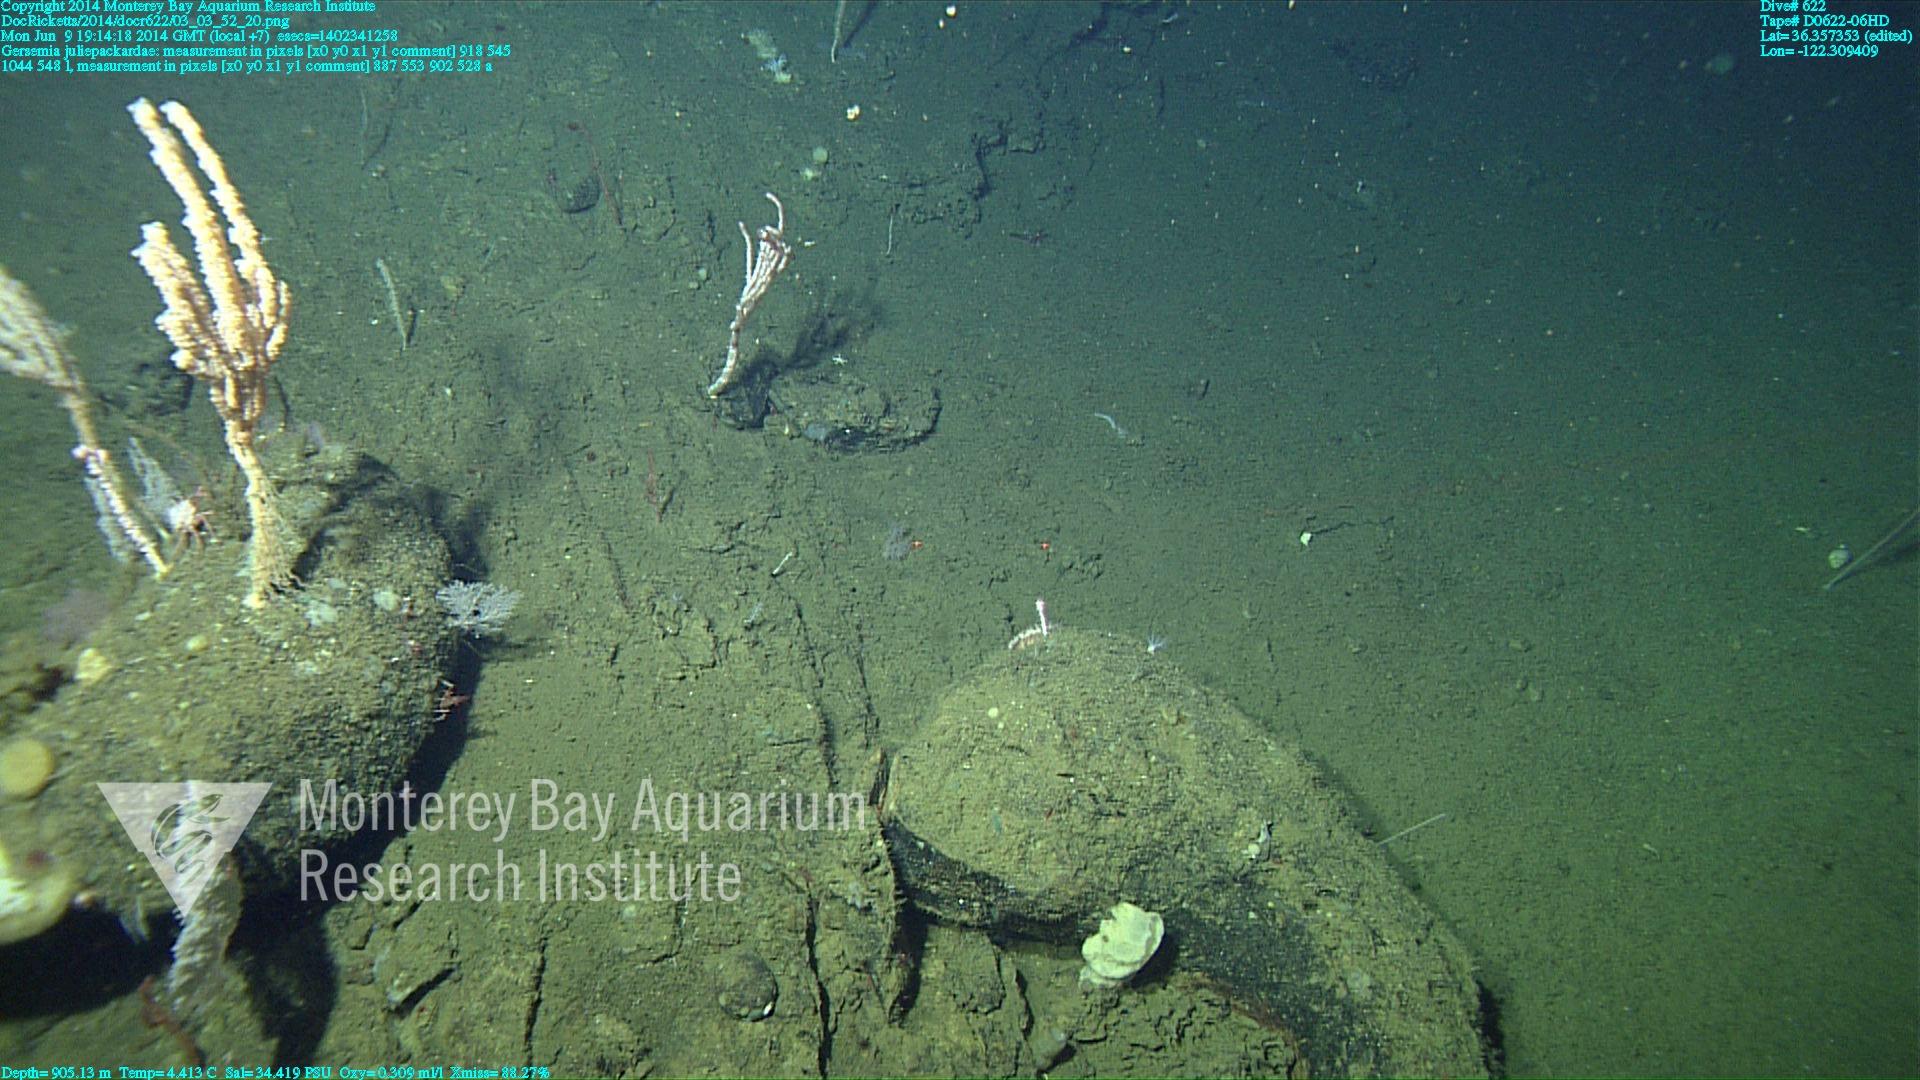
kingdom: Animalia
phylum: Cnidaria
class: Anthozoa
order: Malacalcyonacea
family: Alcyoniidae
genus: Gersemia
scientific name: Gersemia juliepackardae
